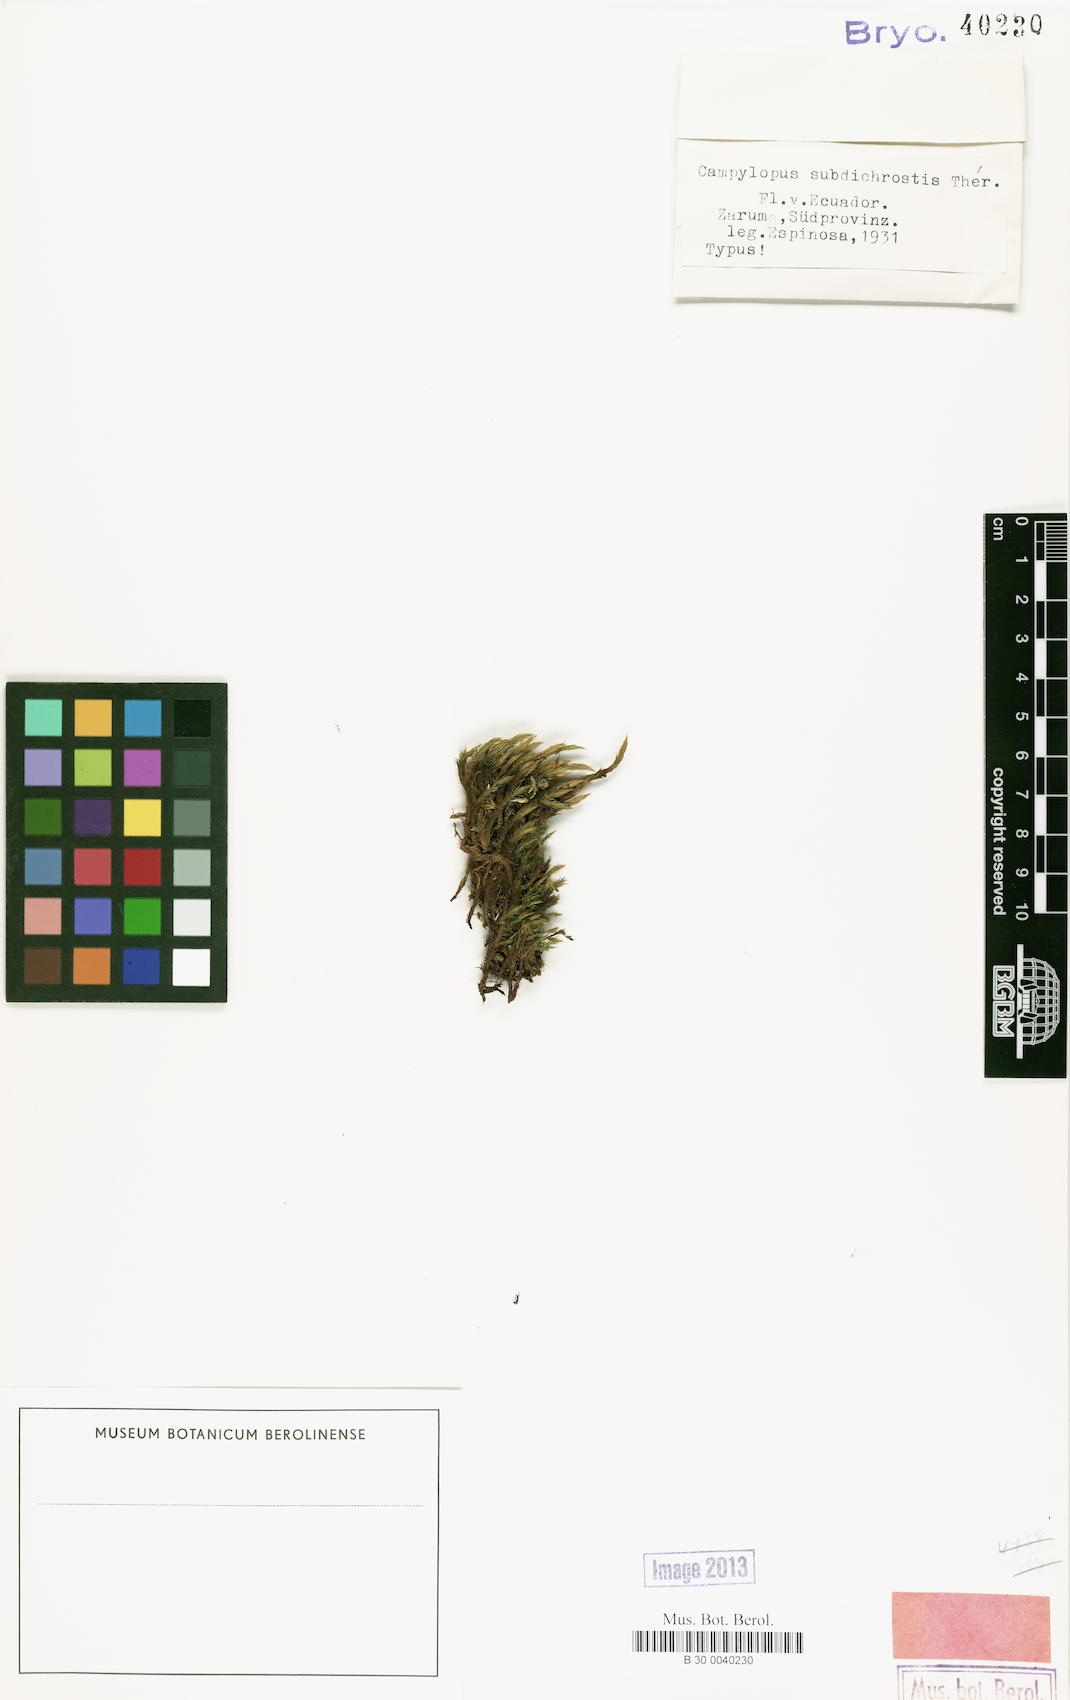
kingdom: Plantae
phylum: Bryophyta
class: Bryopsida
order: Dicranales
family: Dicranaceae
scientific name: Dicranaceae
